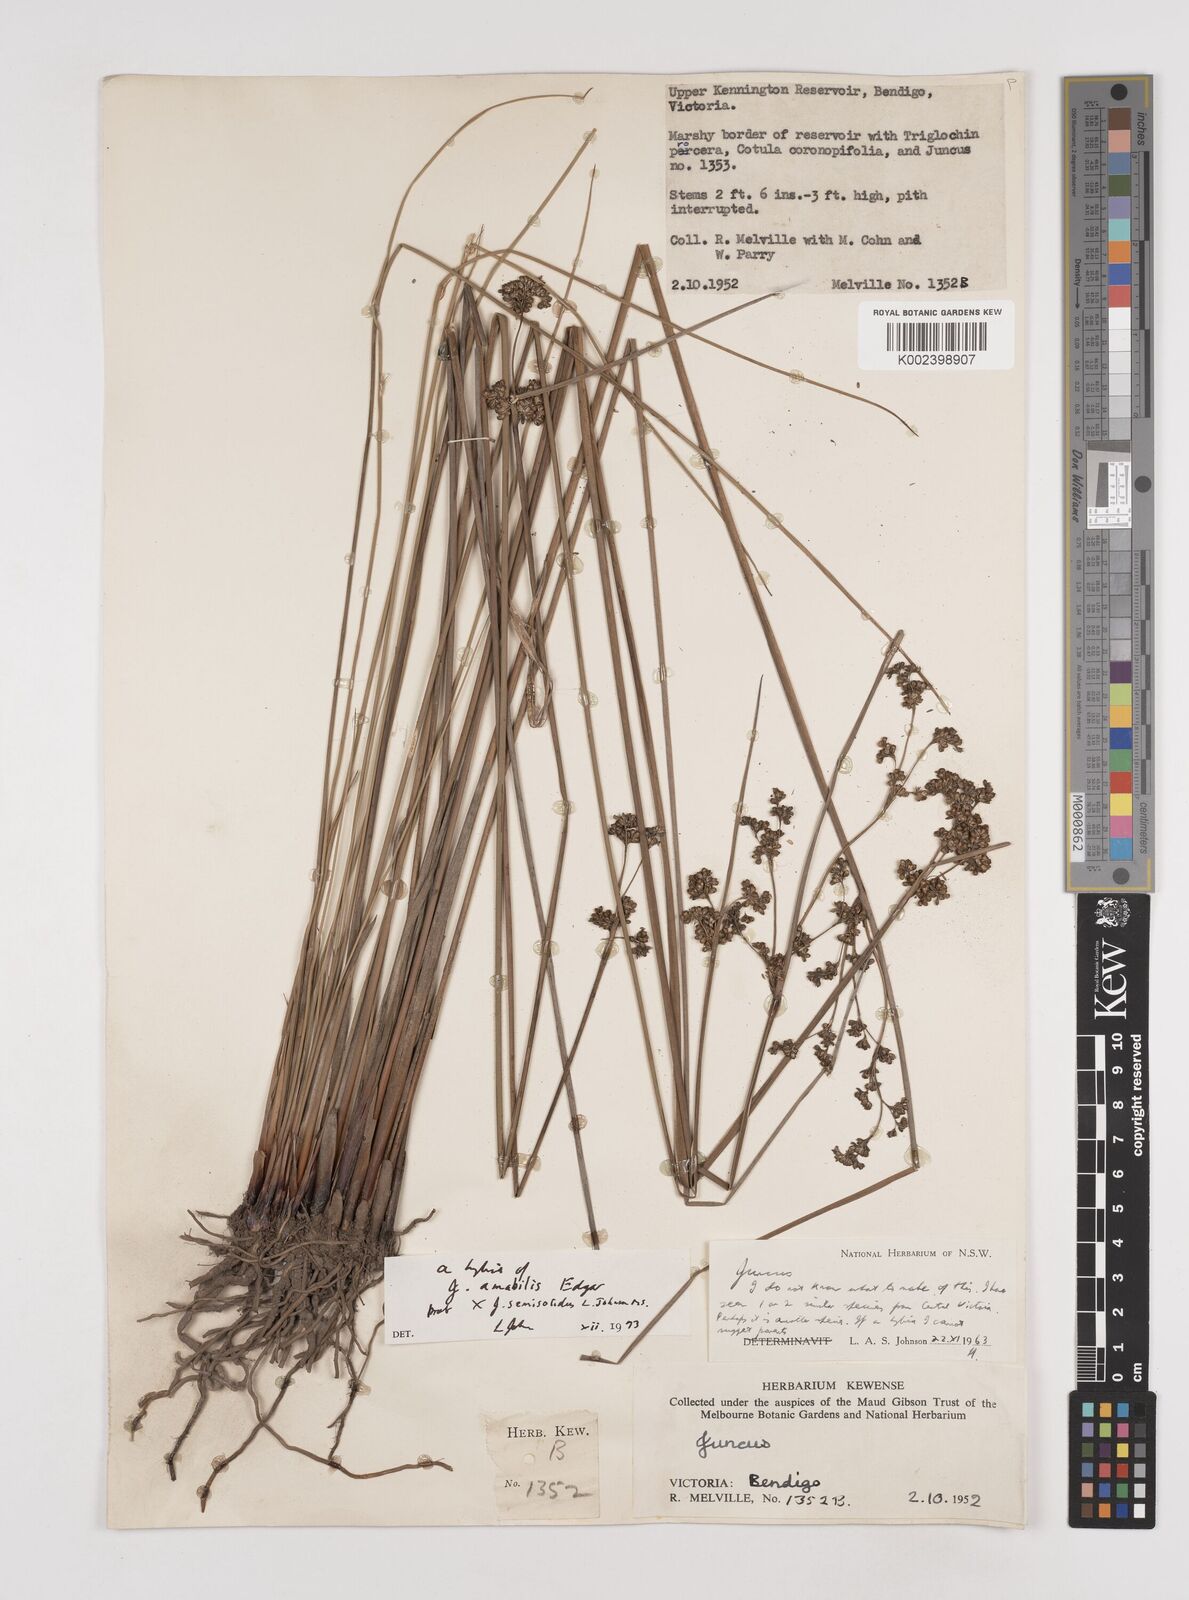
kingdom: Plantae
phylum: Tracheophyta
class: Liliopsida
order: Poales
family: Juncaceae
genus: Juncus
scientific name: Juncus amabilis
